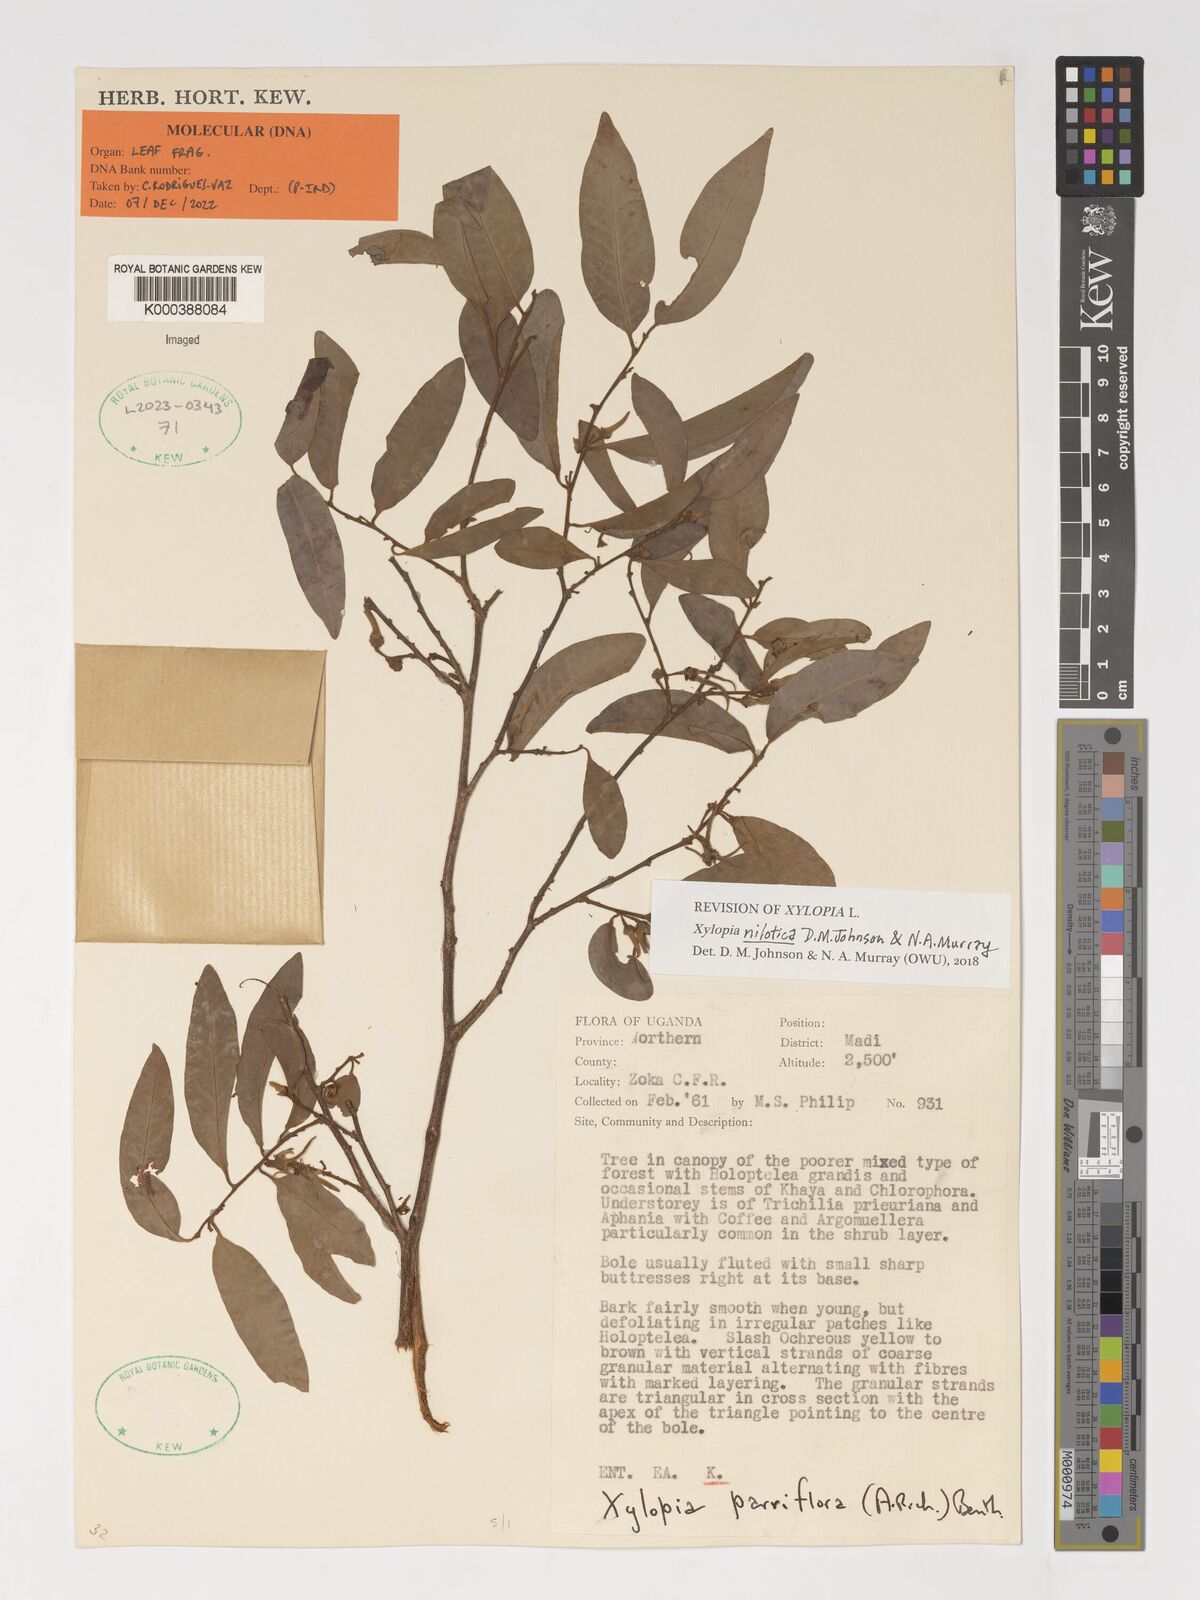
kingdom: Plantae
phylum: Tracheophyta
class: Magnoliopsida
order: Magnoliales
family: Annonaceae
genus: Xylopia
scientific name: Xylopia nilotica
